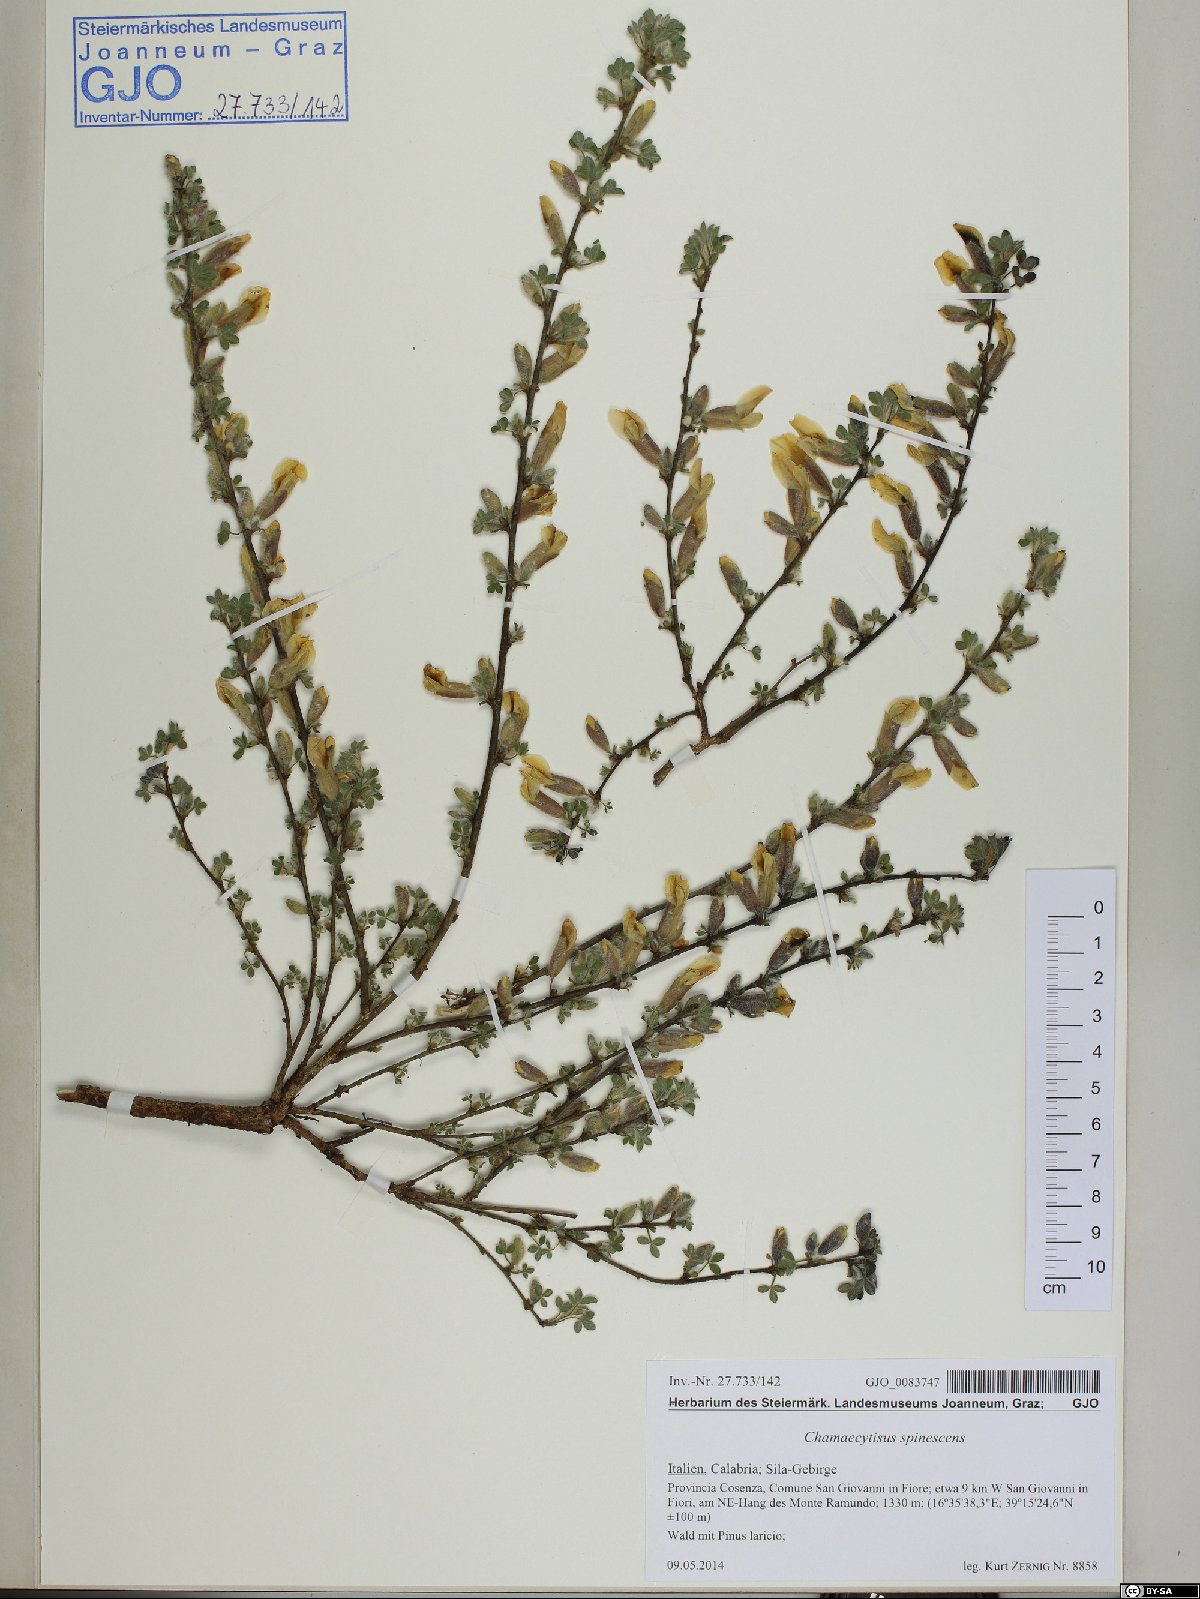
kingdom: Plantae
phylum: Tracheophyta
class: Magnoliopsida
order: Fabales
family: Fabaceae
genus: Chamaecytisus
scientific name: Chamaecytisus spinescens
